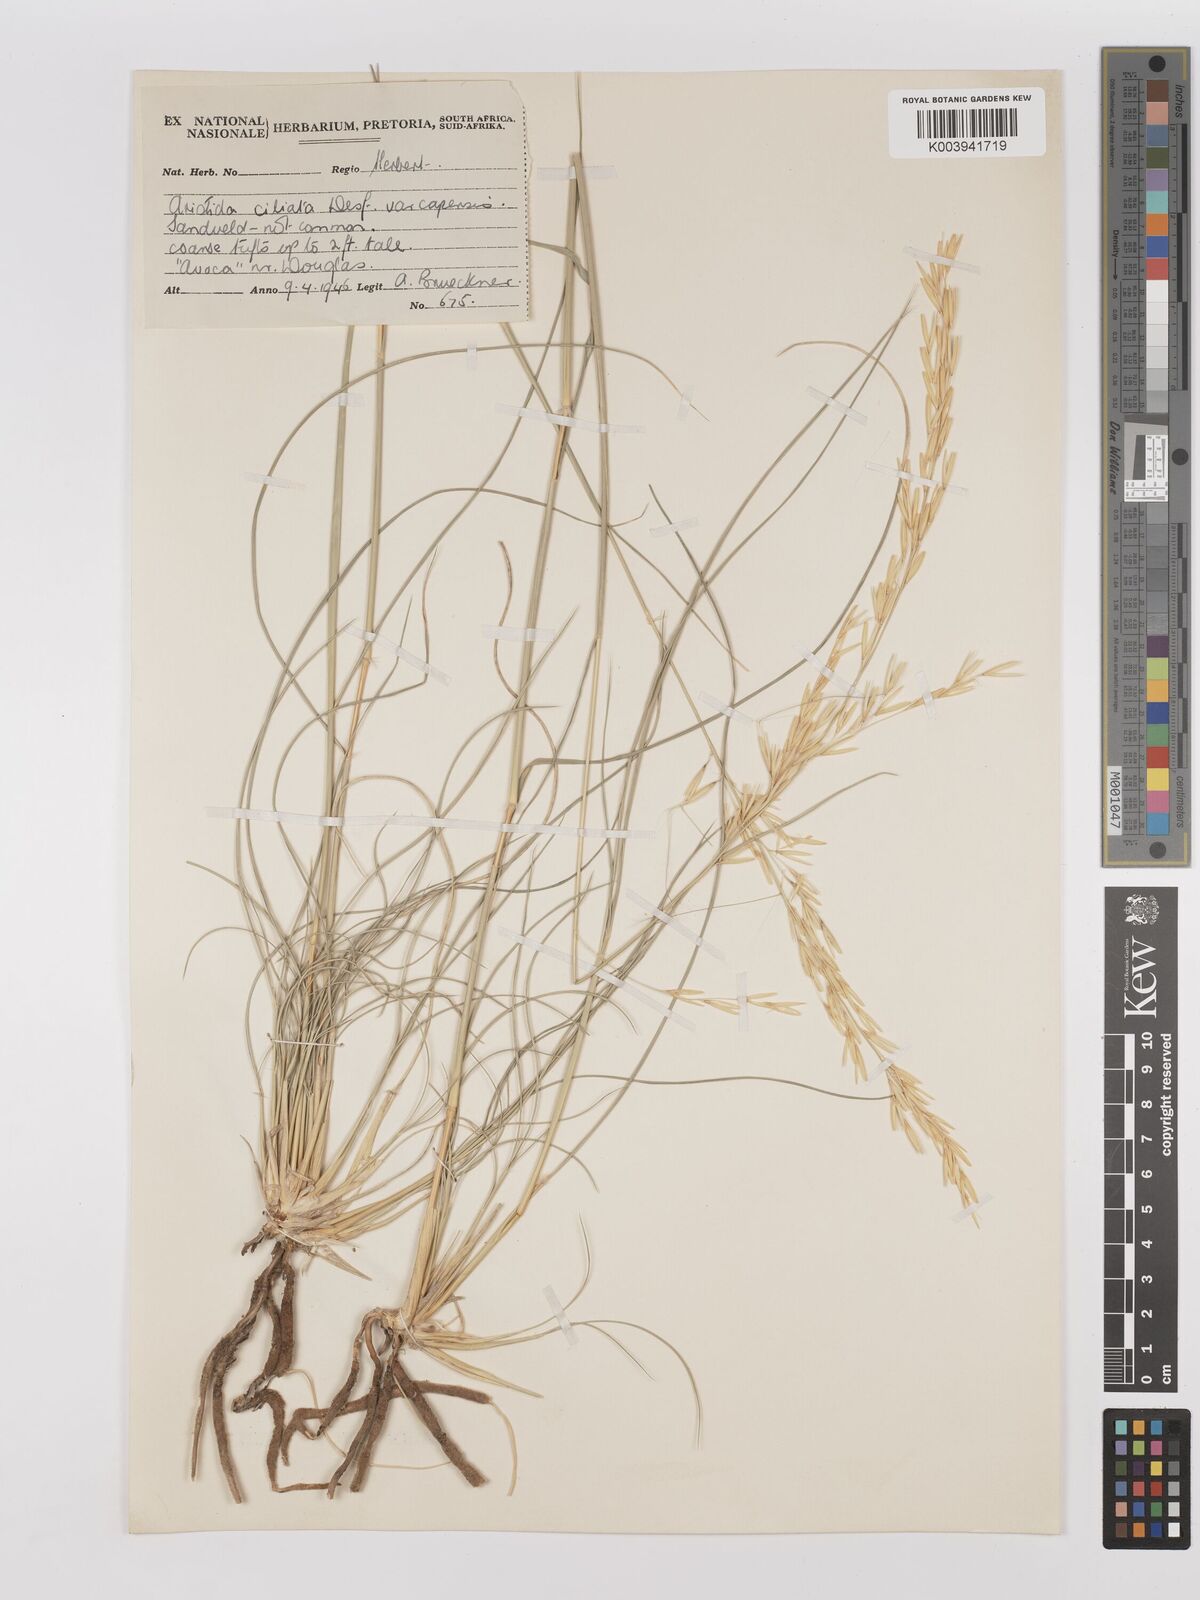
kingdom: Plantae
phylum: Tracheophyta
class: Liliopsida
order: Poales
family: Poaceae
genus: Stipagrostis
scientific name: Stipagrostis ciliata
